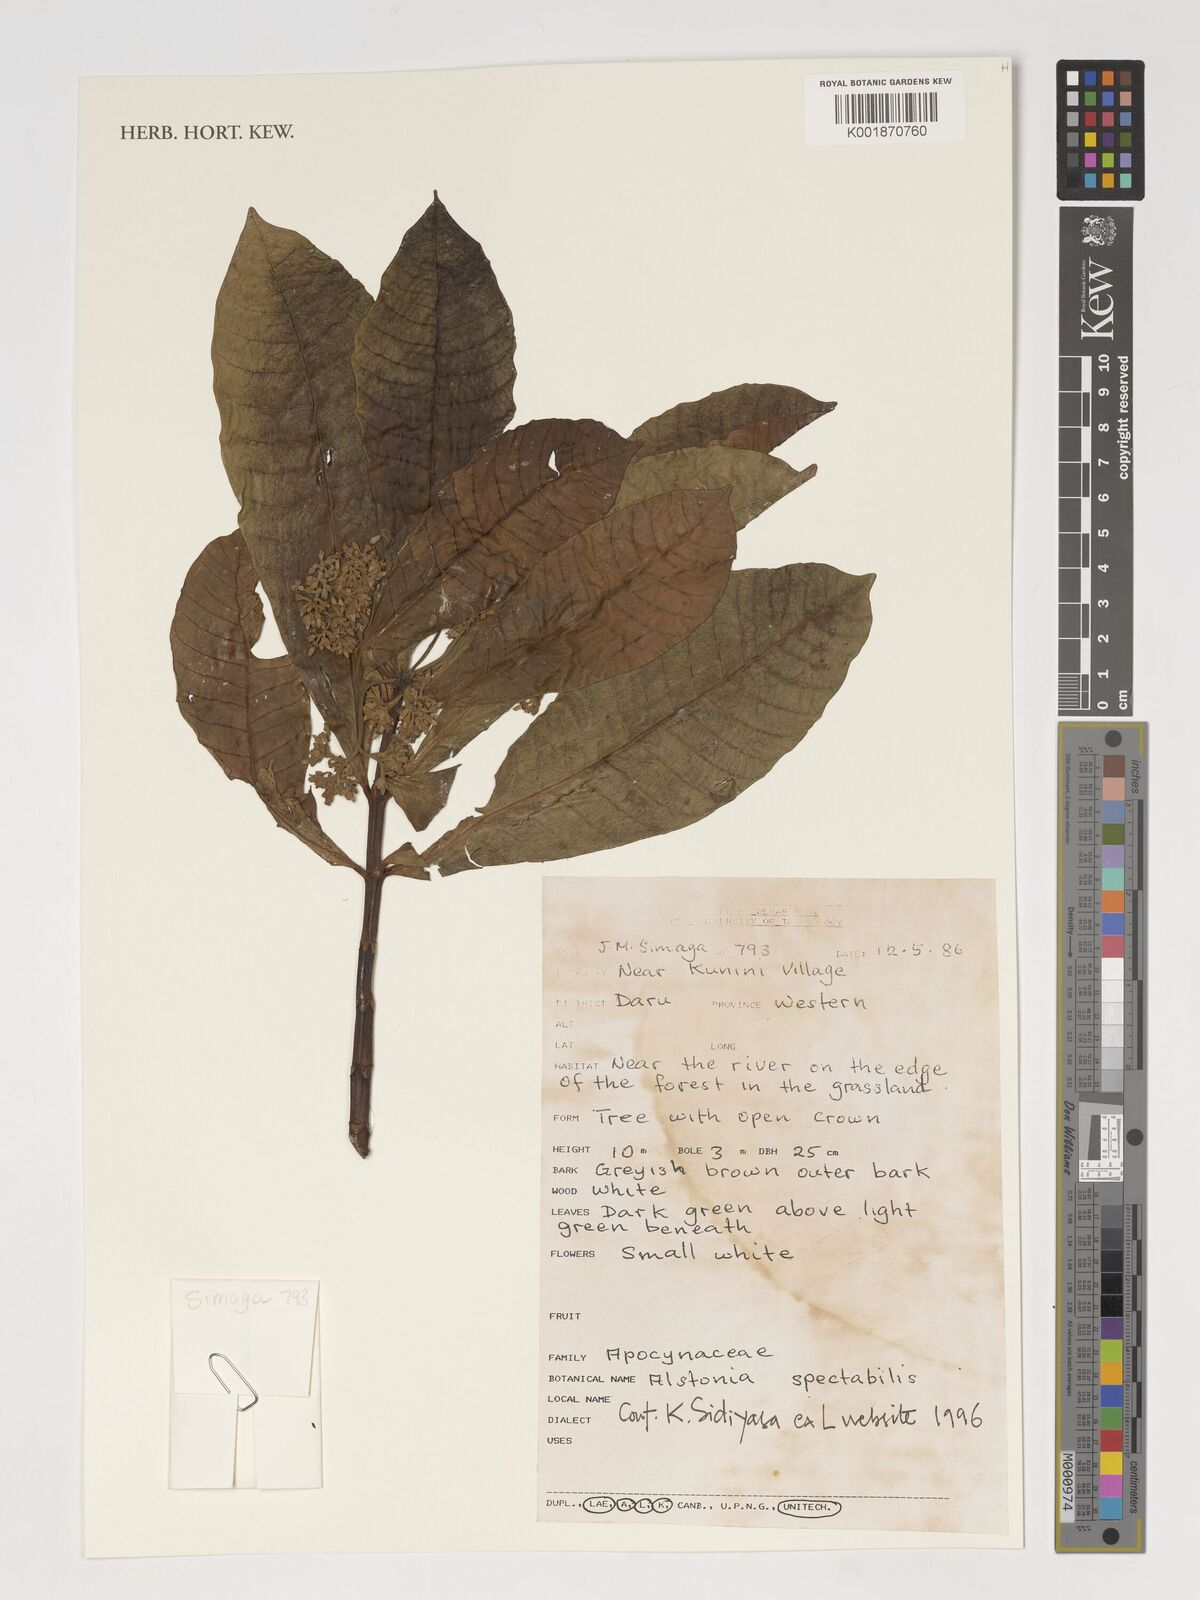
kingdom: Plantae
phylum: Tracheophyta
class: Magnoliopsida
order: Gentianales
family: Apocynaceae
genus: Alstonia
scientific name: Alstonia spectabilis
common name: Milky yellowwood
